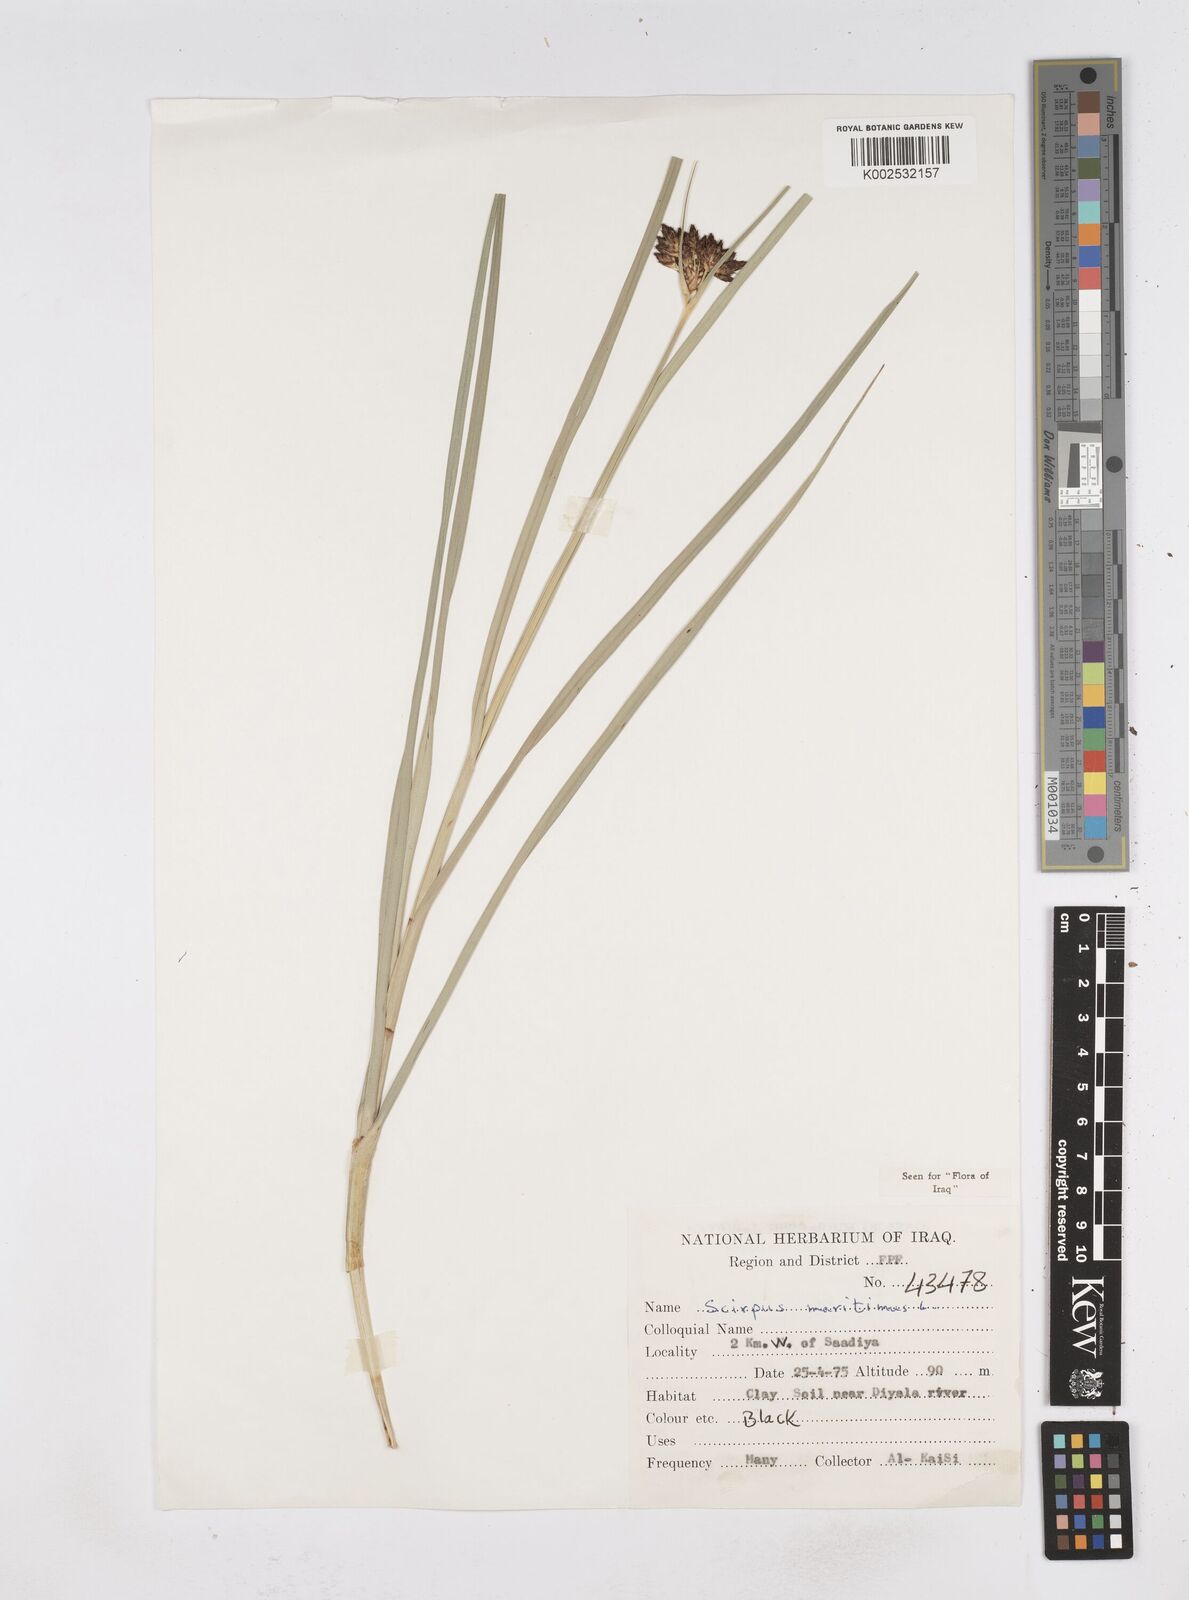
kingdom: Plantae
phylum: Tracheophyta
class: Liliopsida
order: Poales
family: Cyperaceae
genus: Bolboschoenus
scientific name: Bolboschoenus maritimus
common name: Sea club-rush
